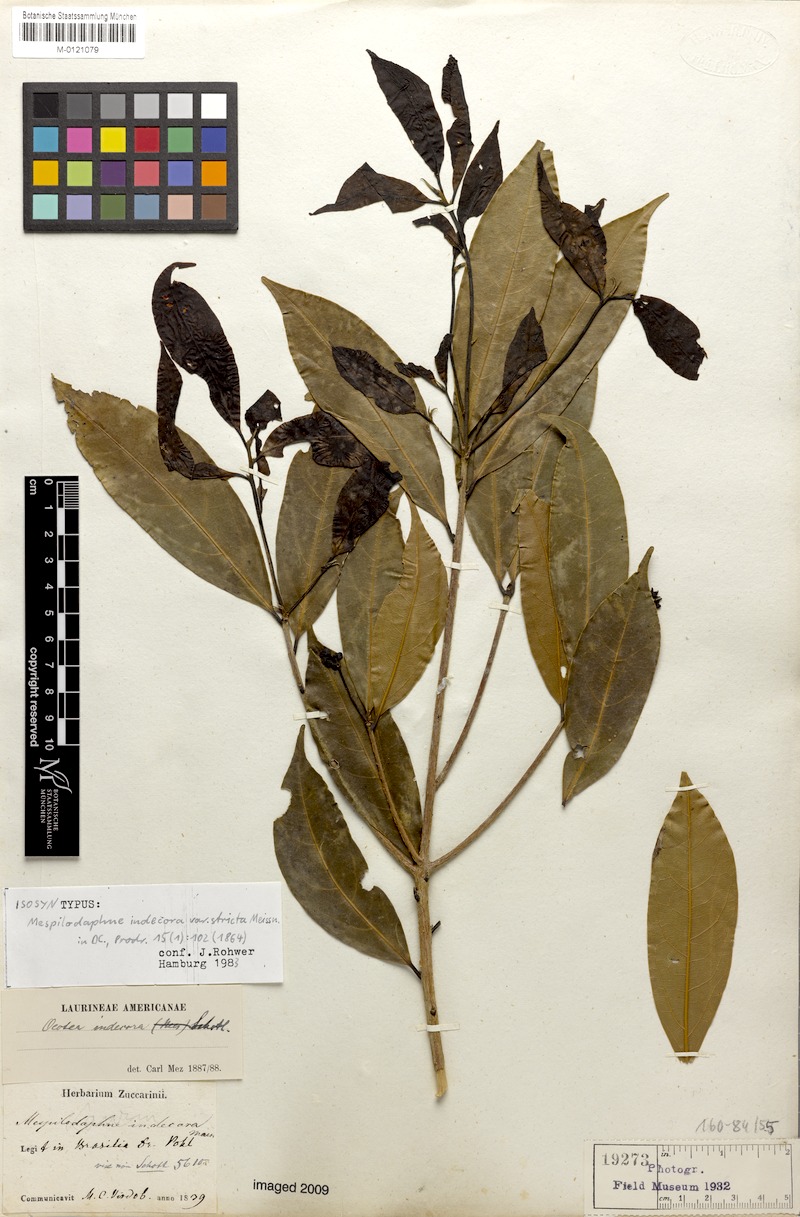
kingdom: Plantae
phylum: Tracheophyta
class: Magnoliopsida
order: Laurales
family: Lauraceae
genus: Mespilodaphne
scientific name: Mespilodaphne indecora
